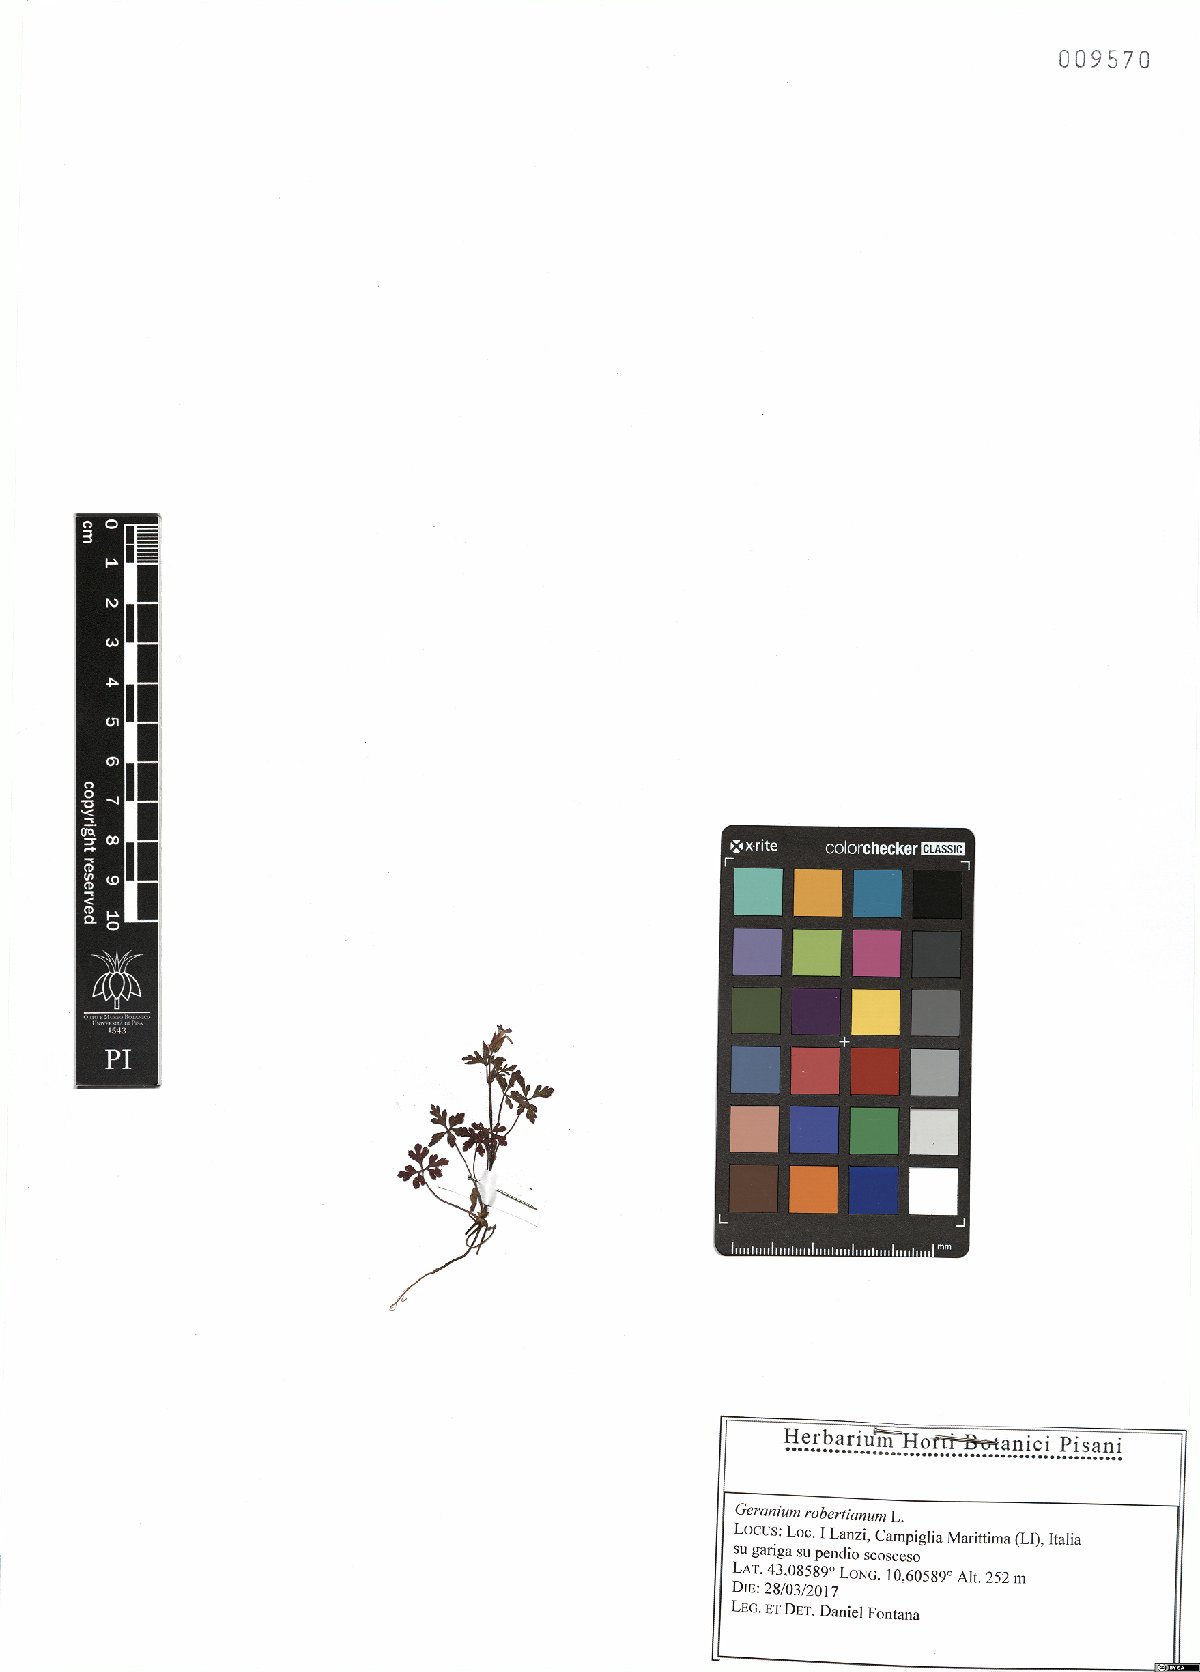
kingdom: Plantae
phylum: Tracheophyta
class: Magnoliopsida
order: Geraniales
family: Geraniaceae
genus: Geranium
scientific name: Geranium robertianum
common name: Herb-robert
